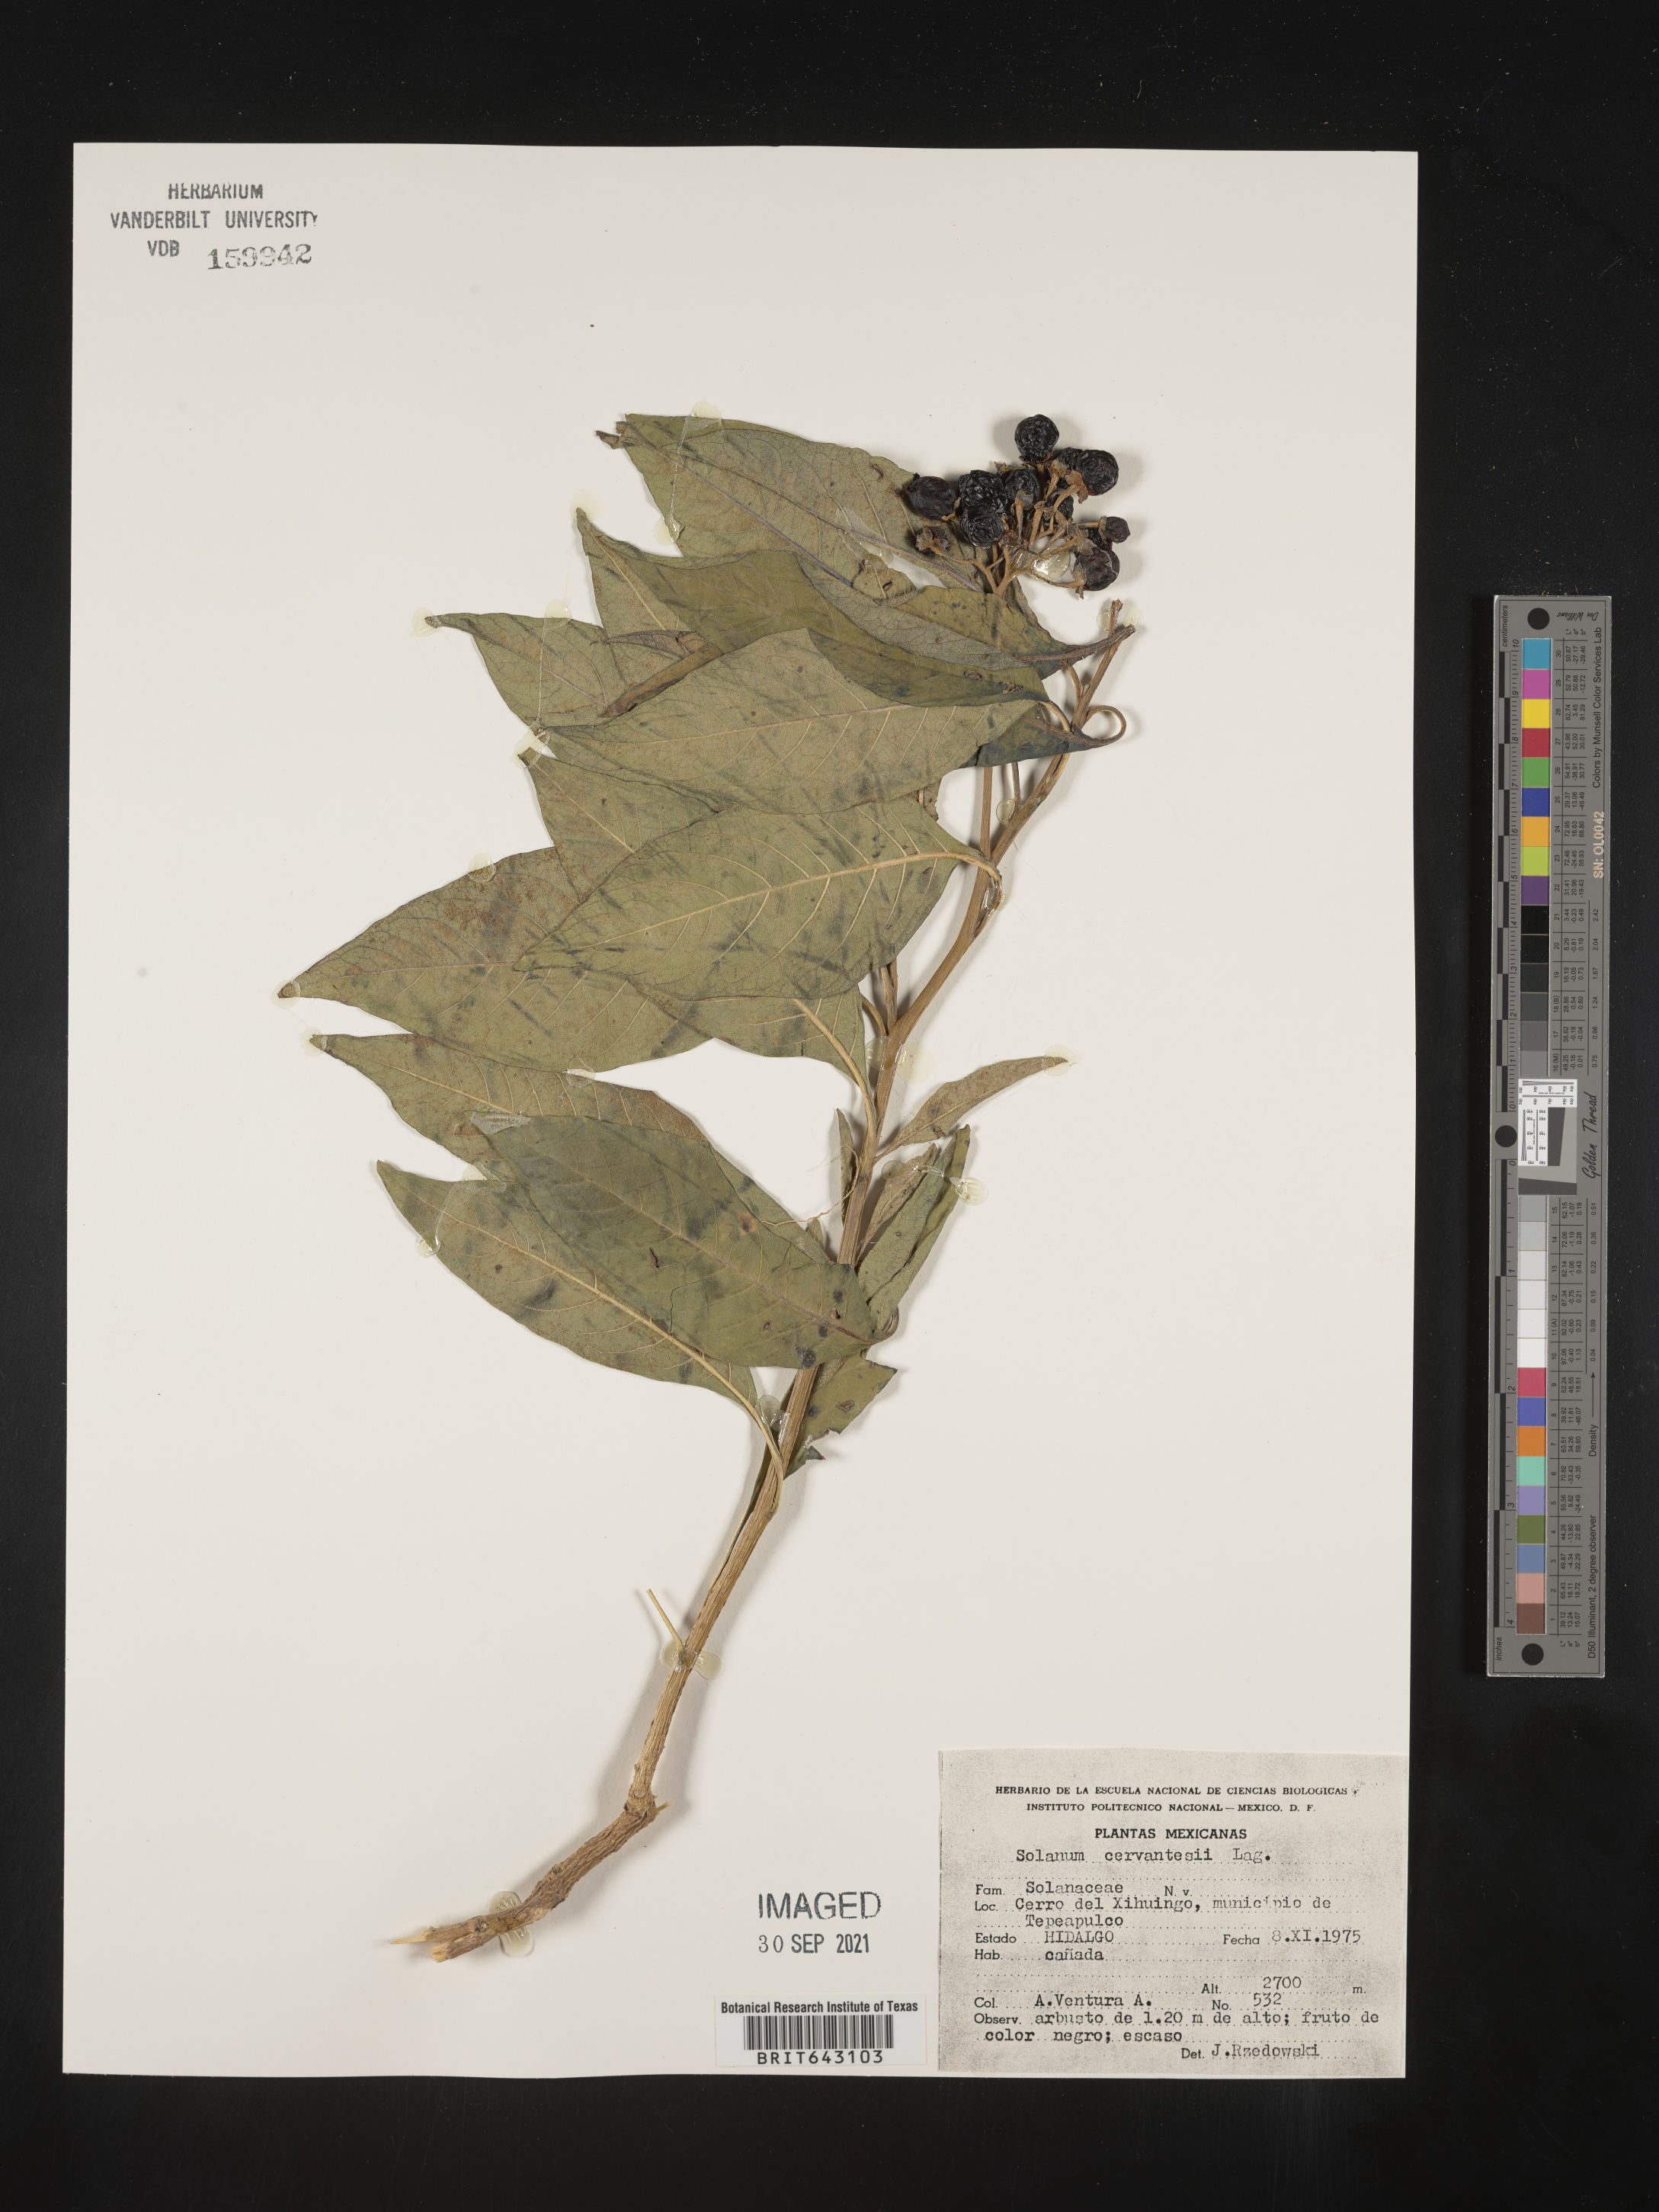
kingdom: Plantae
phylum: Tracheophyta
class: Magnoliopsida
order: Solanales
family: Solanaceae
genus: Solanum
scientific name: Solanum
